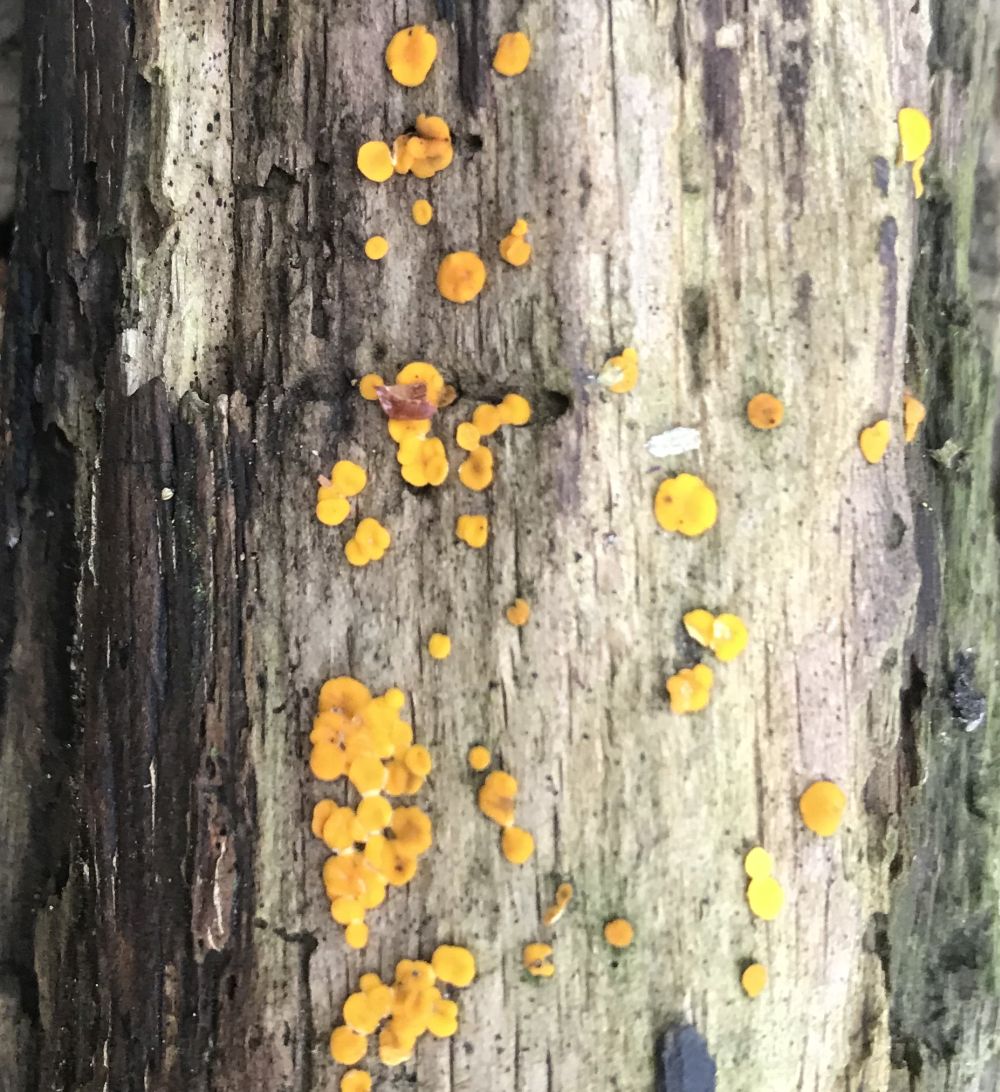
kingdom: Fungi
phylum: Ascomycota
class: Leotiomycetes
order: Helotiales
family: Pezizellaceae
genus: Calycina
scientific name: Calycina citrina
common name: almindelig gulskive
